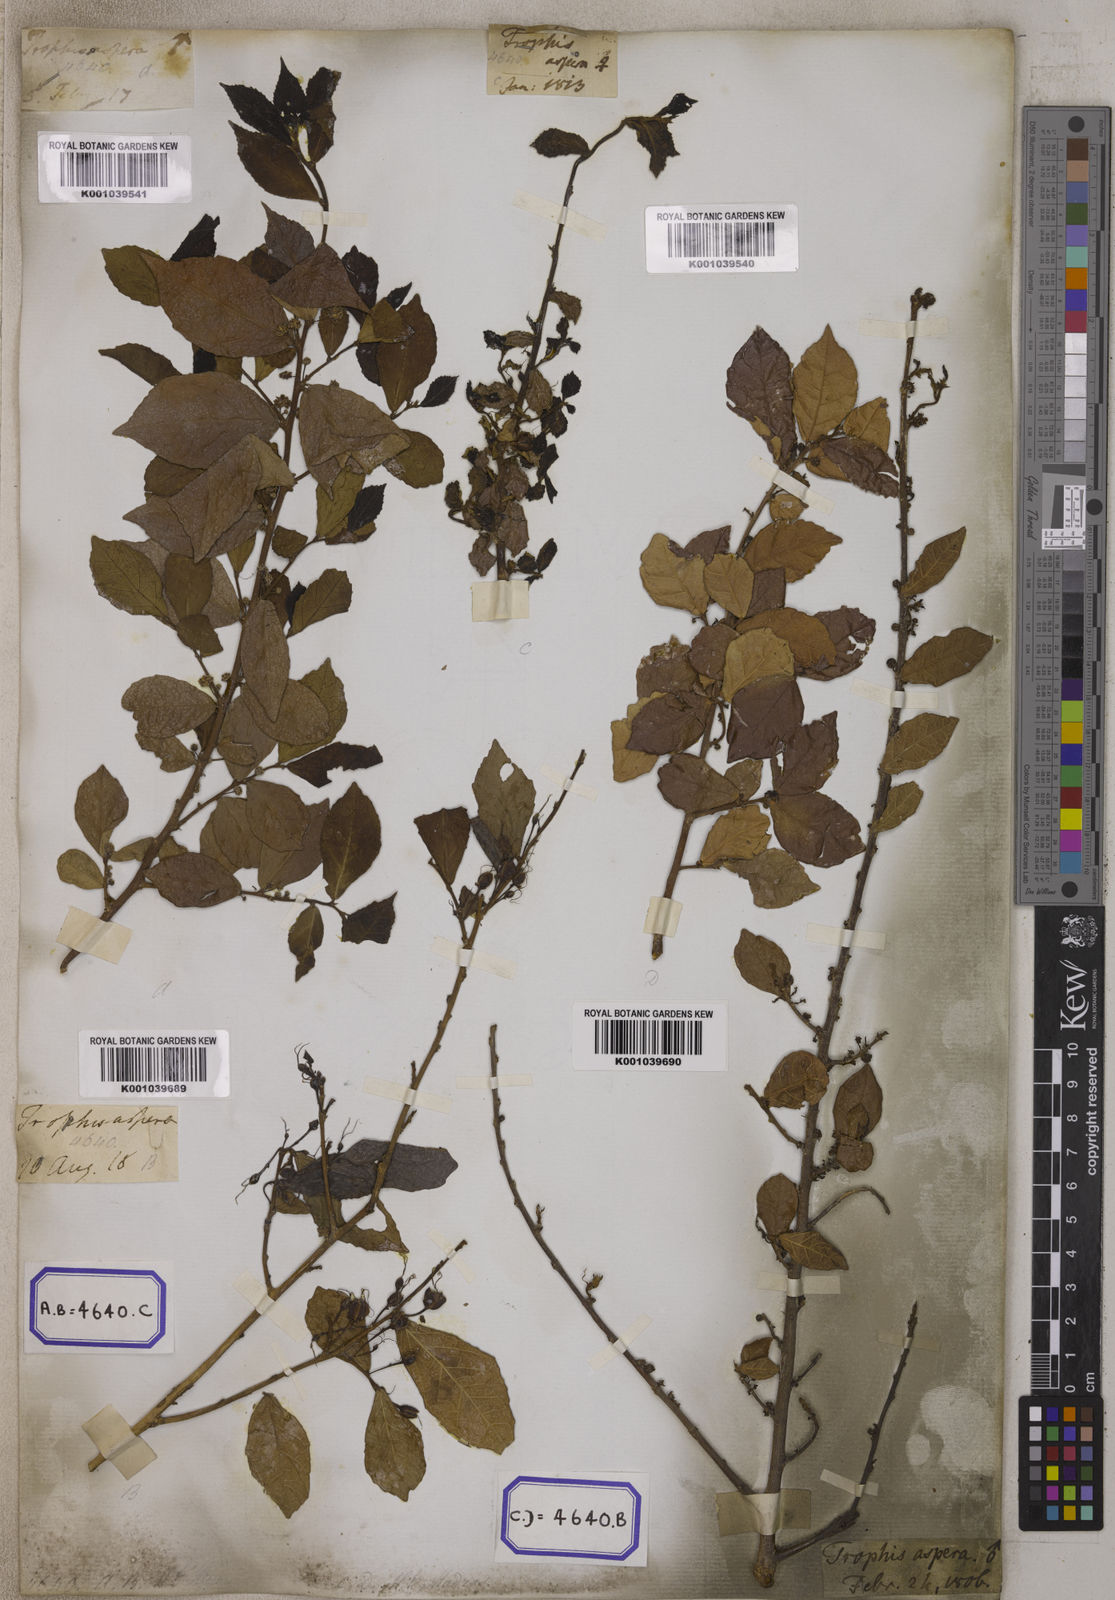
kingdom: Plantae
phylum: Tracheophyta
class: Magnoliopsida
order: Rosales
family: Moraceae
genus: Streblus
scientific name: Streblus asper
